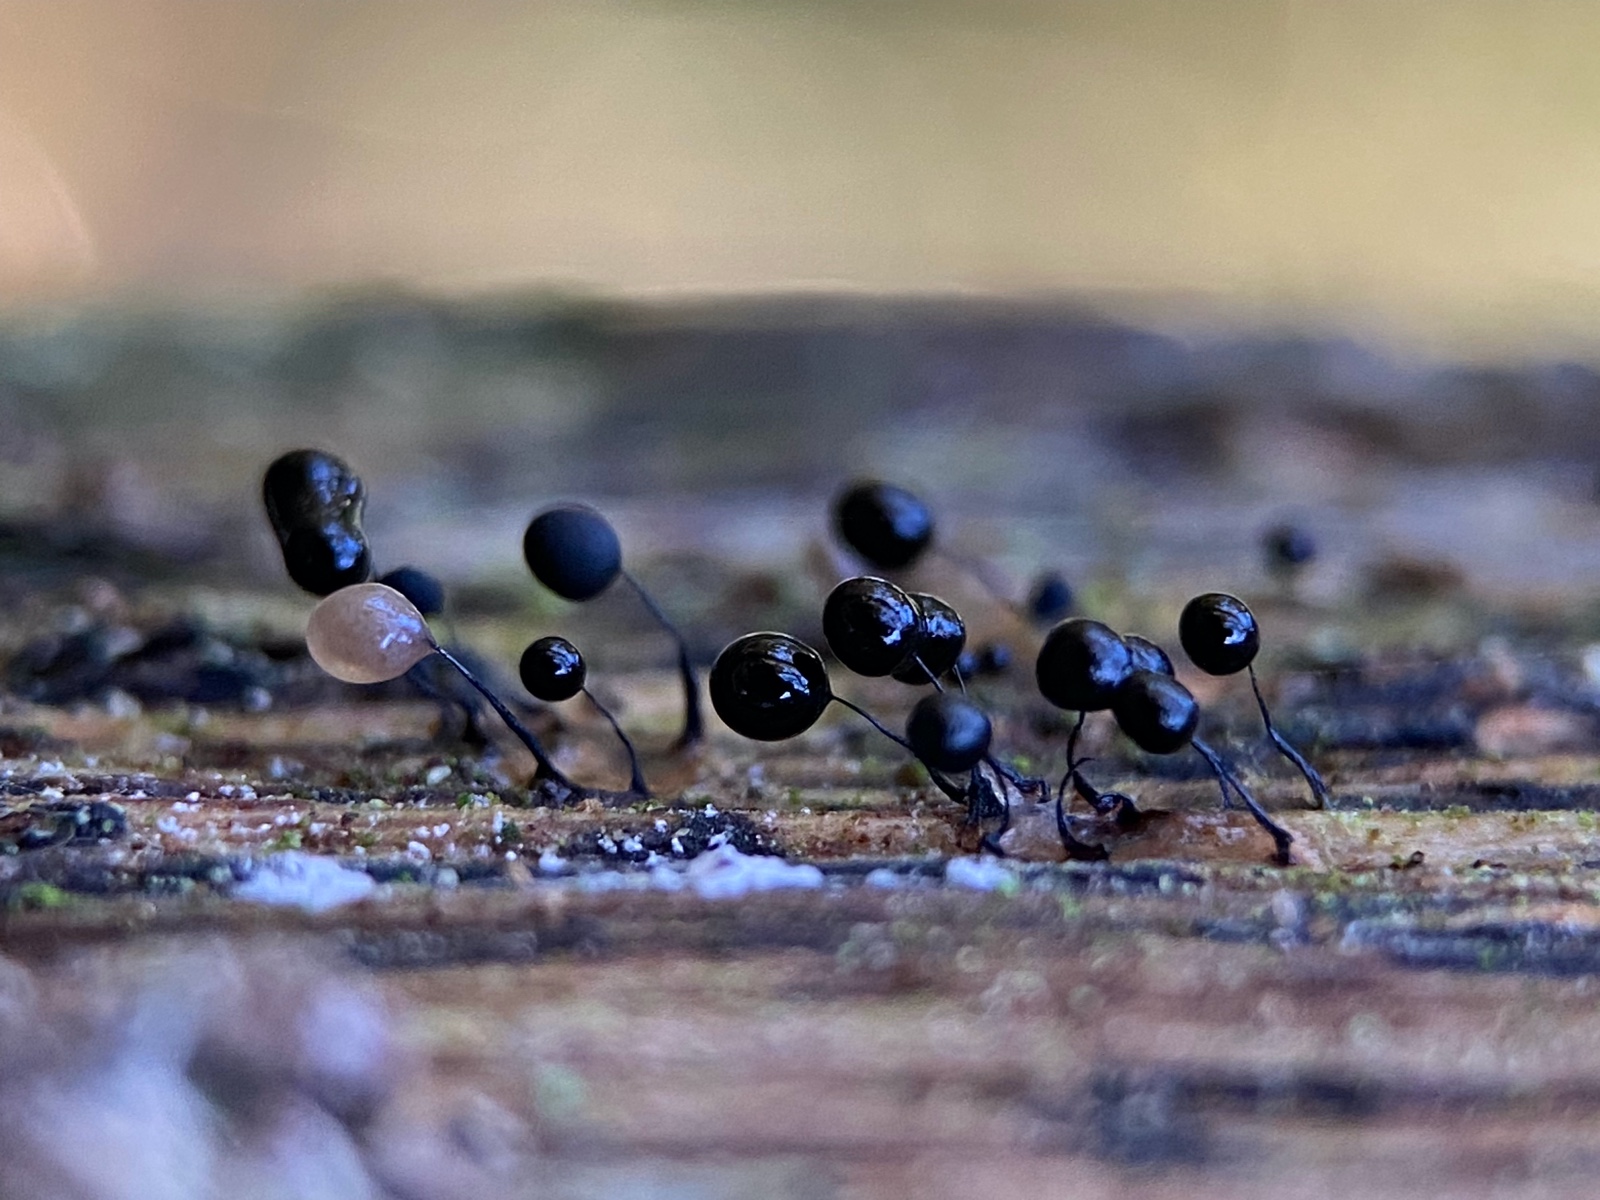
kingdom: Protozoa
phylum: Mycetozoa
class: Myxomycetes
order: Stemonitidales
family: Stemonitidaceae
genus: Comatricha
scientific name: Comatricha
